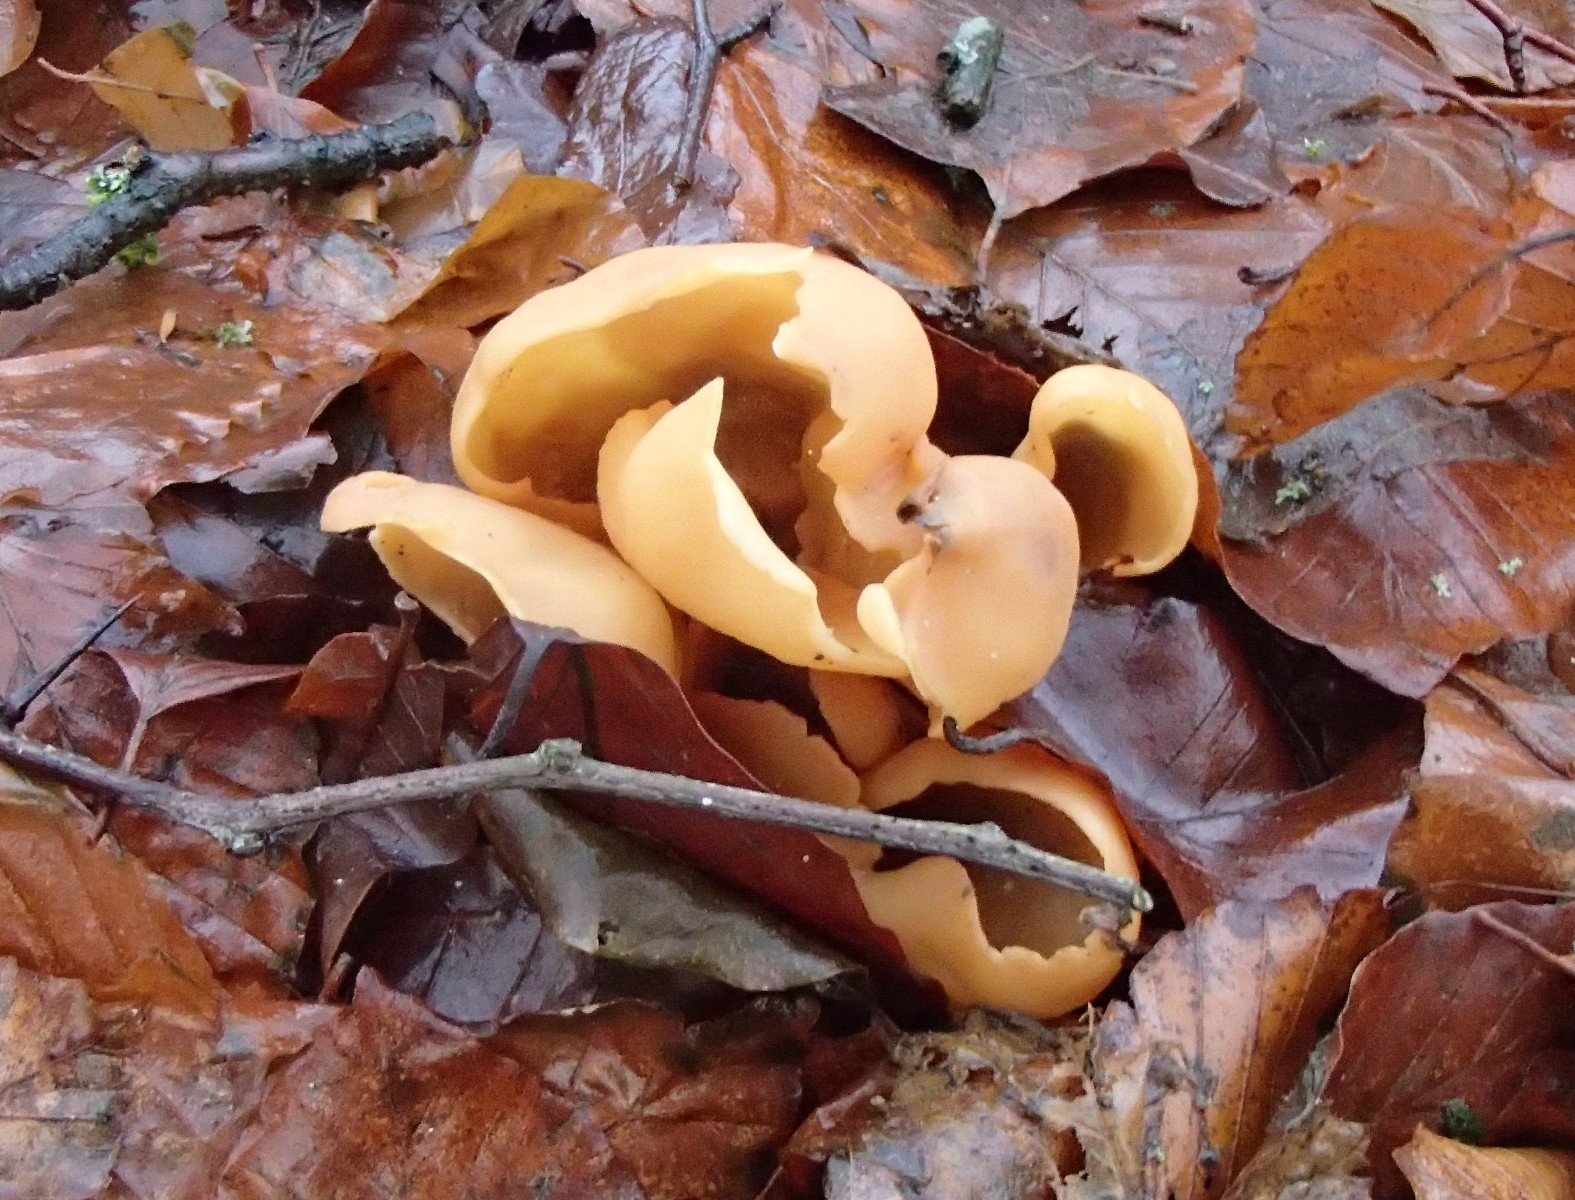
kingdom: Fungi
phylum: Ascomycota
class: Pezizomycetes
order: Pezizales
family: Otideaceae
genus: Otidea
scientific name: Otidea onotica
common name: æsel-ørebæger
